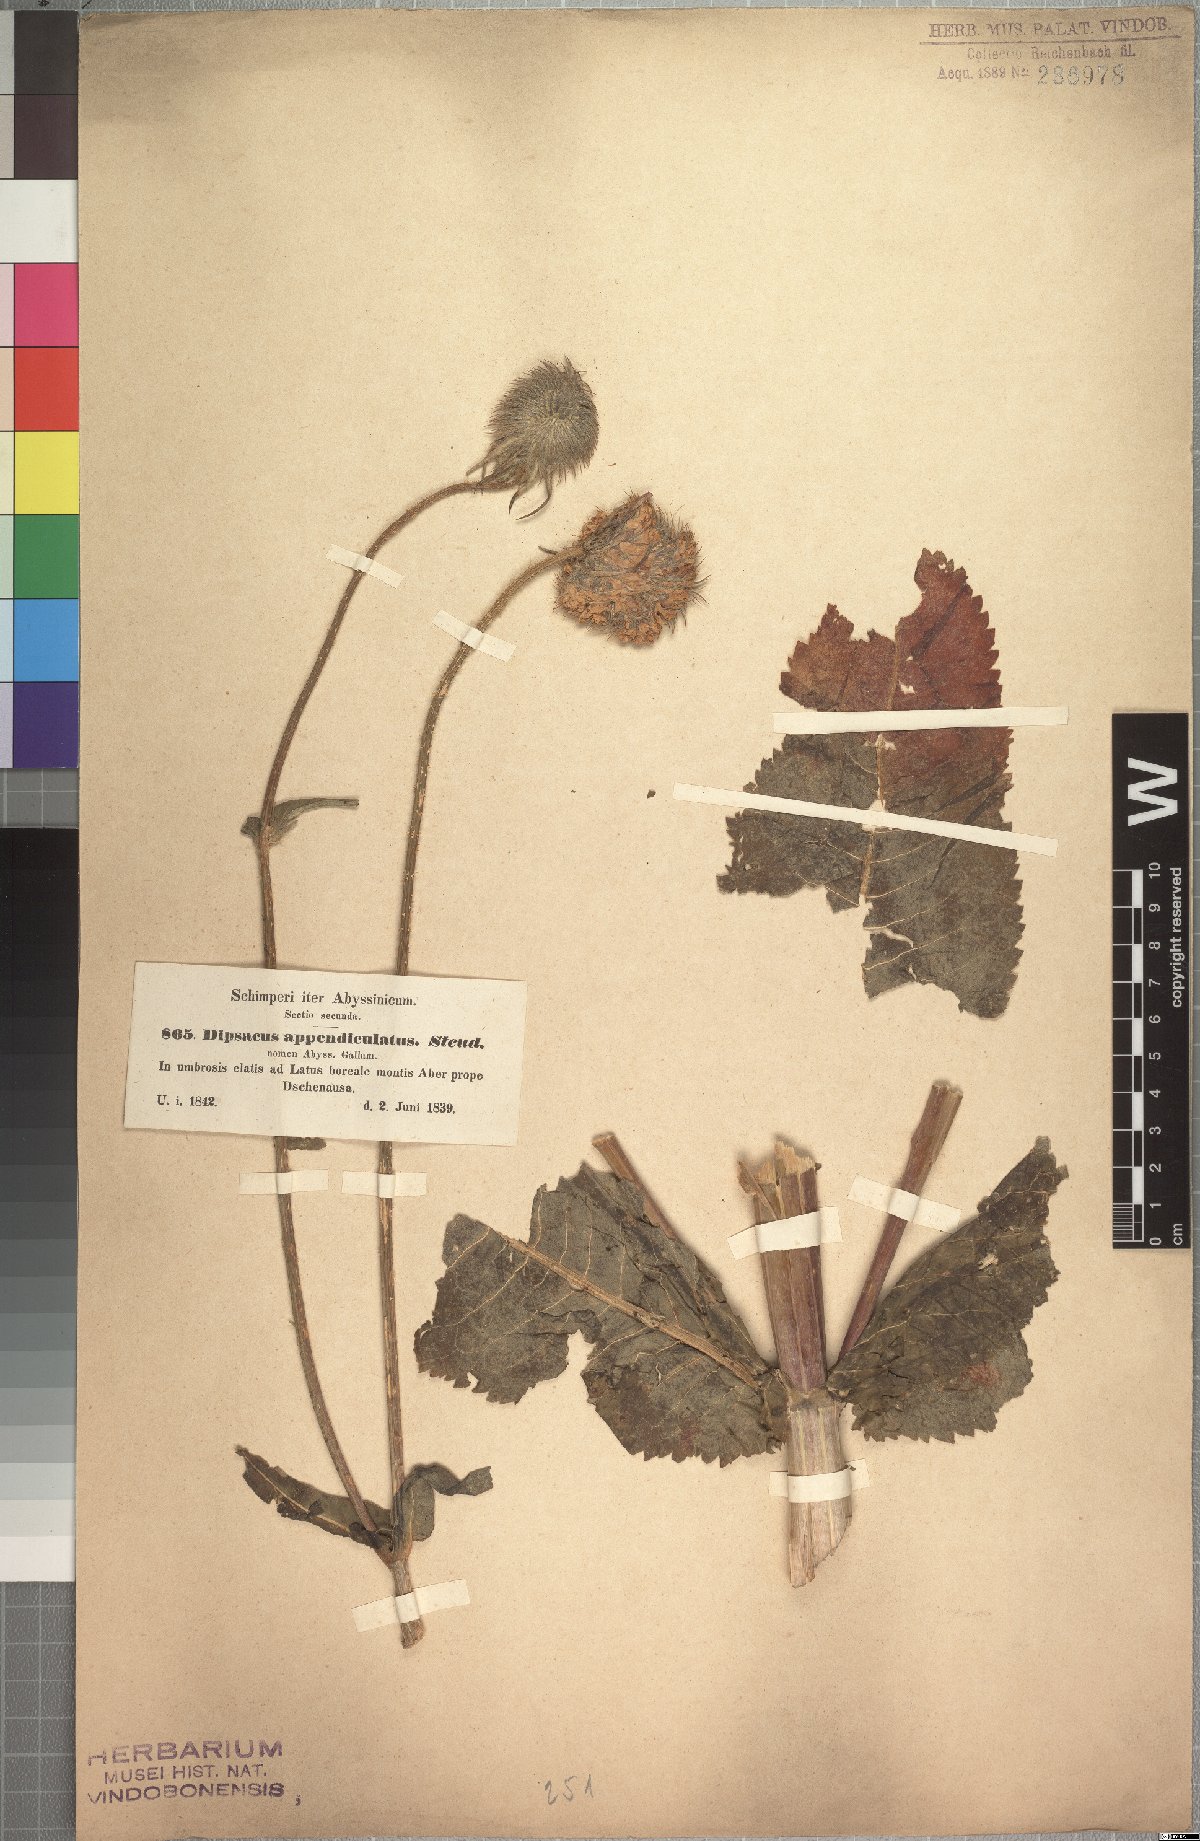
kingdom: Plantae
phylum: Tracheophyta
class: Magnoliopsida
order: Dipsacales
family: Caprifoliaceae
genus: Dipsacus
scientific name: Dipsacus pinnatifidus
